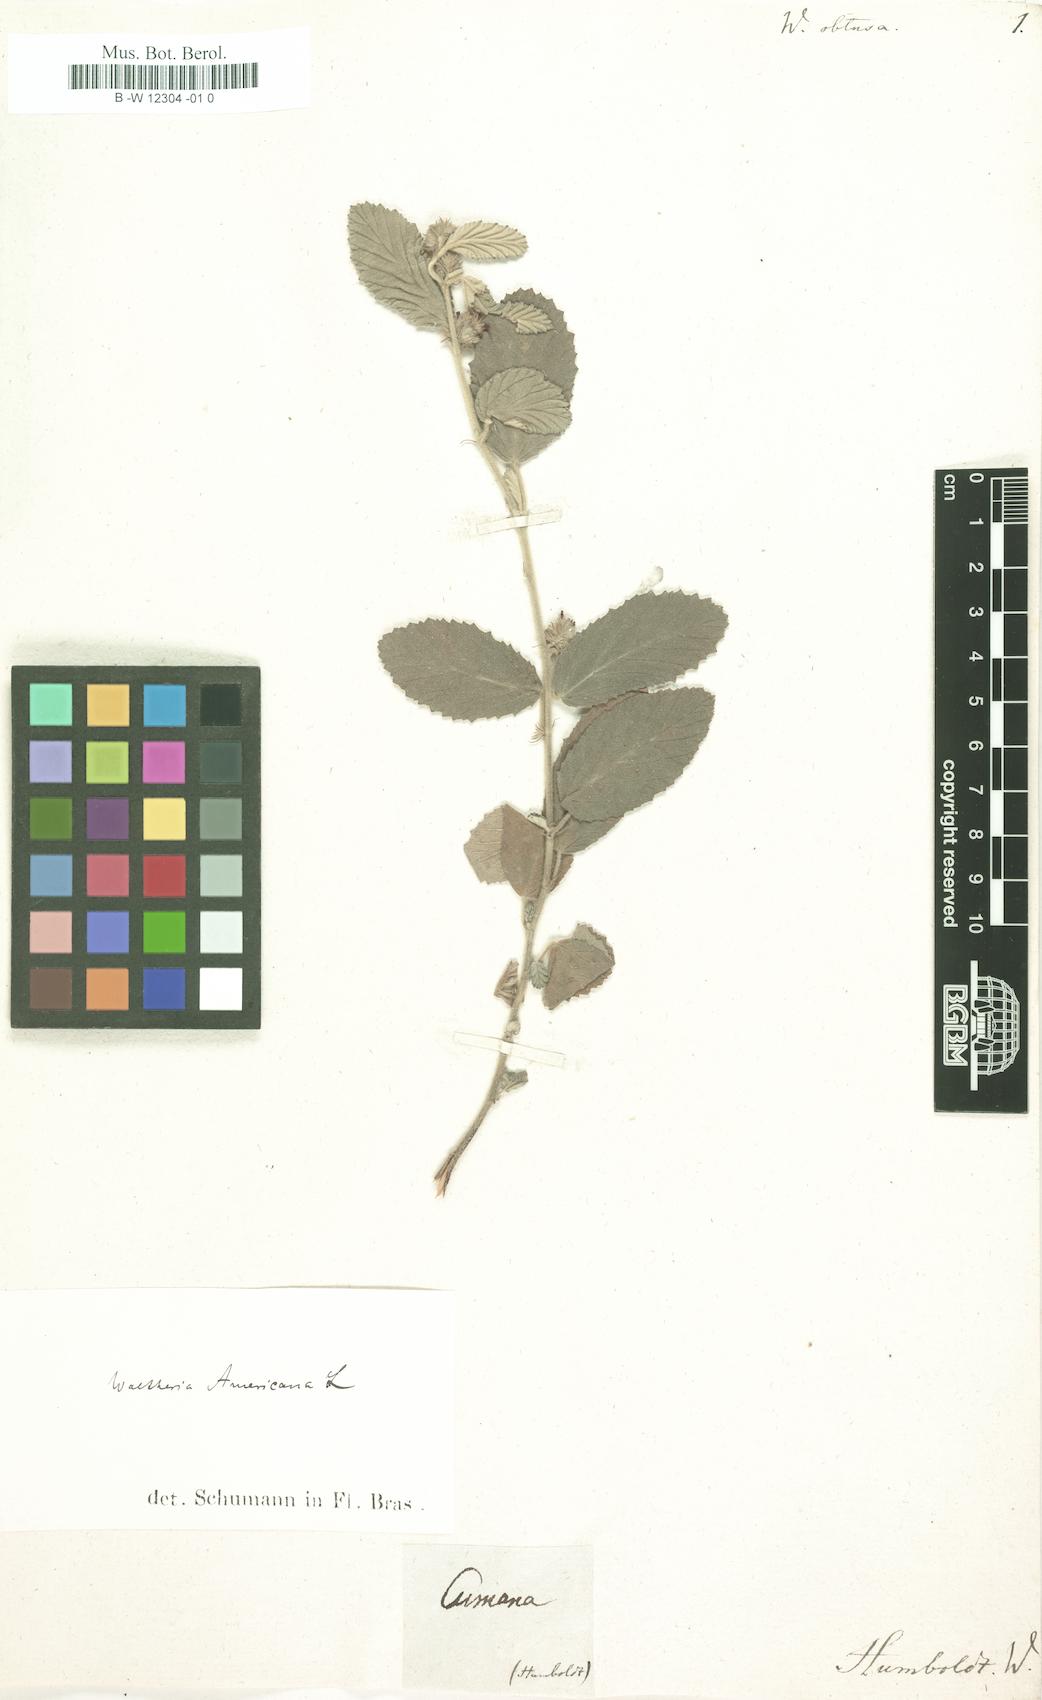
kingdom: Plantae
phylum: Tracheophyta
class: Magnoliopsida
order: Malvales
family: Malvaceae
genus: Waltheria
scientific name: Waltheria indica
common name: Leather-coat
